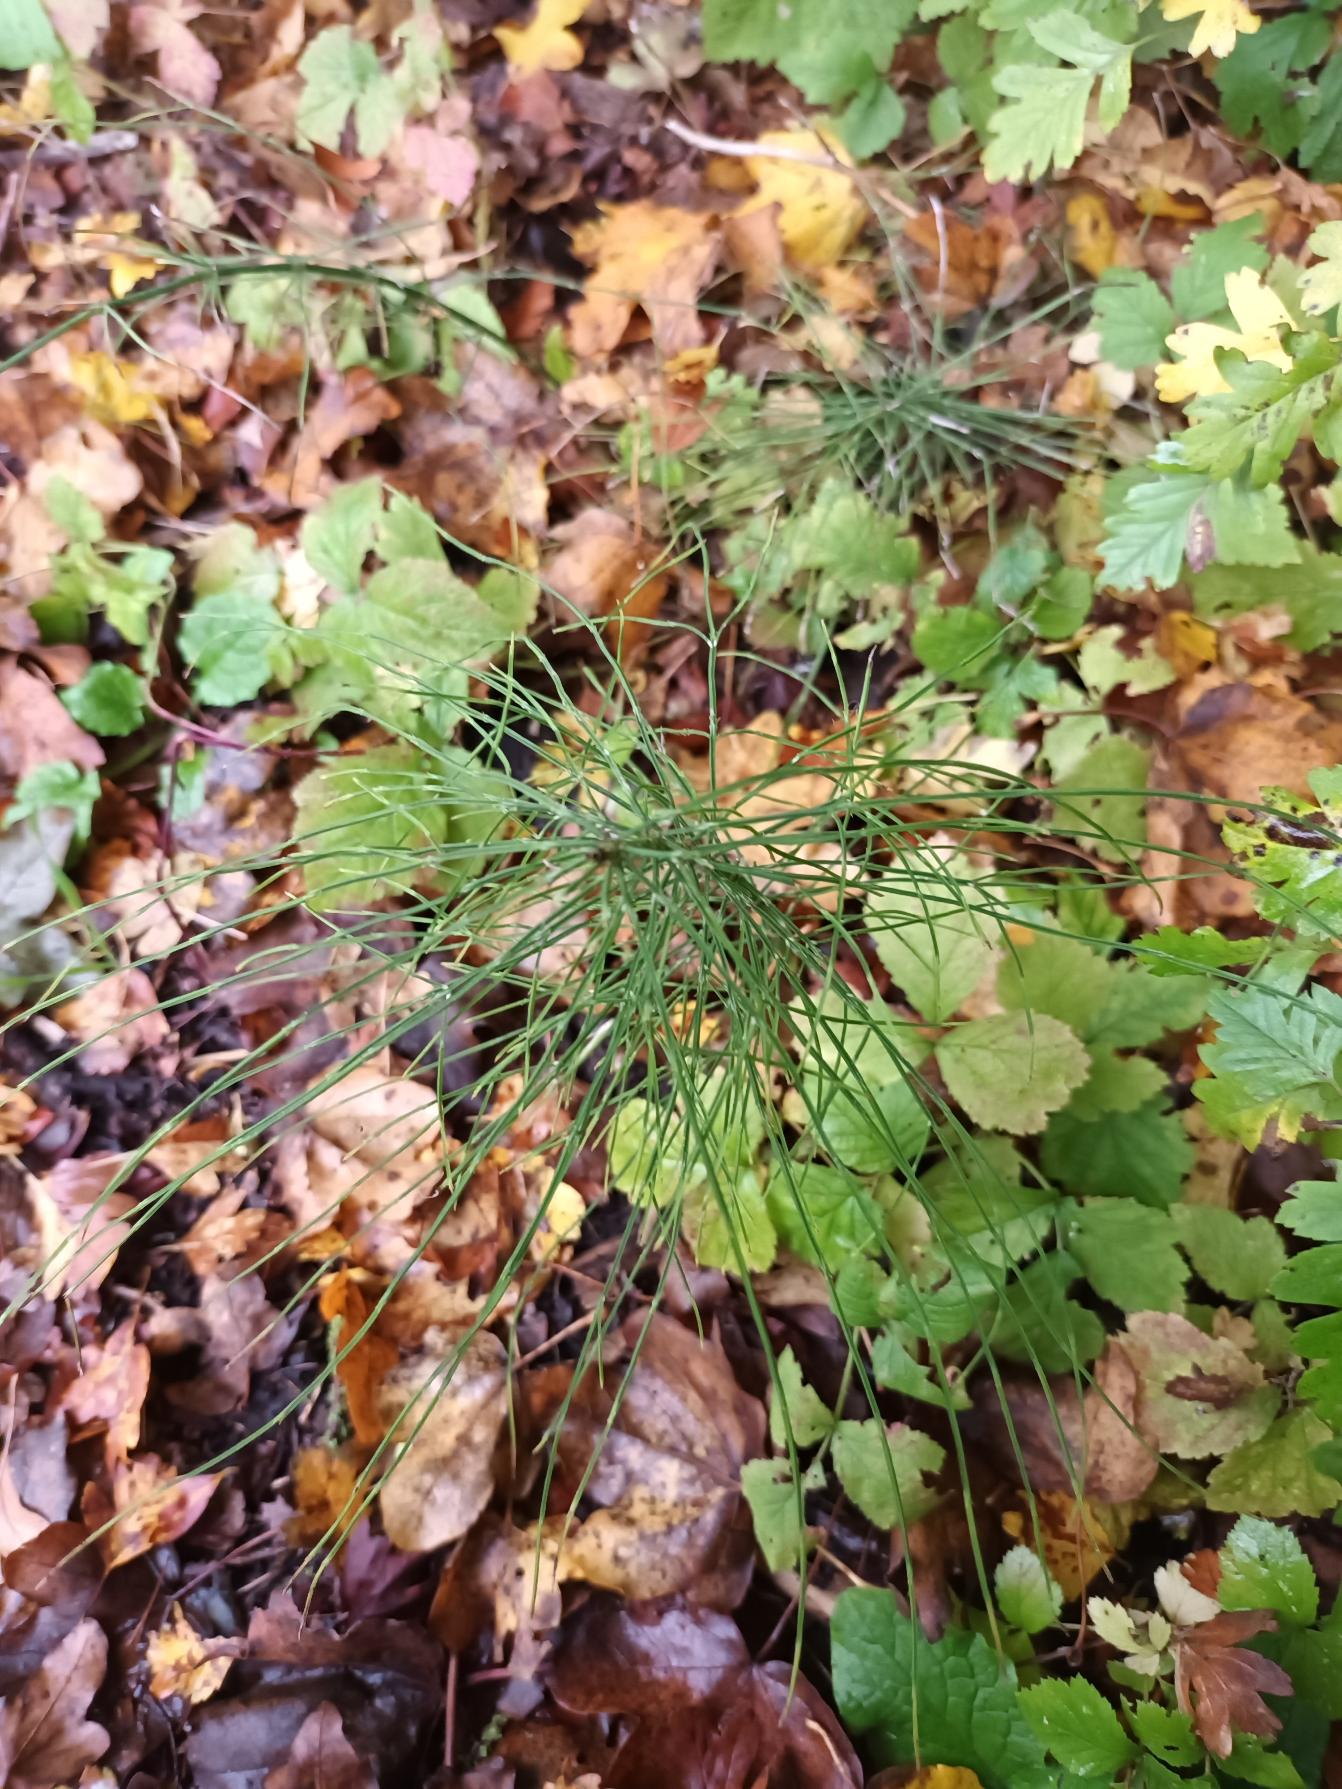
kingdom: Plantae
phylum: Tracheophyta
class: Polypodiopsida
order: Equisetales
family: Equisetaceae
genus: Equisetum
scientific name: Equisetum arvense
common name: Ager-padderok
